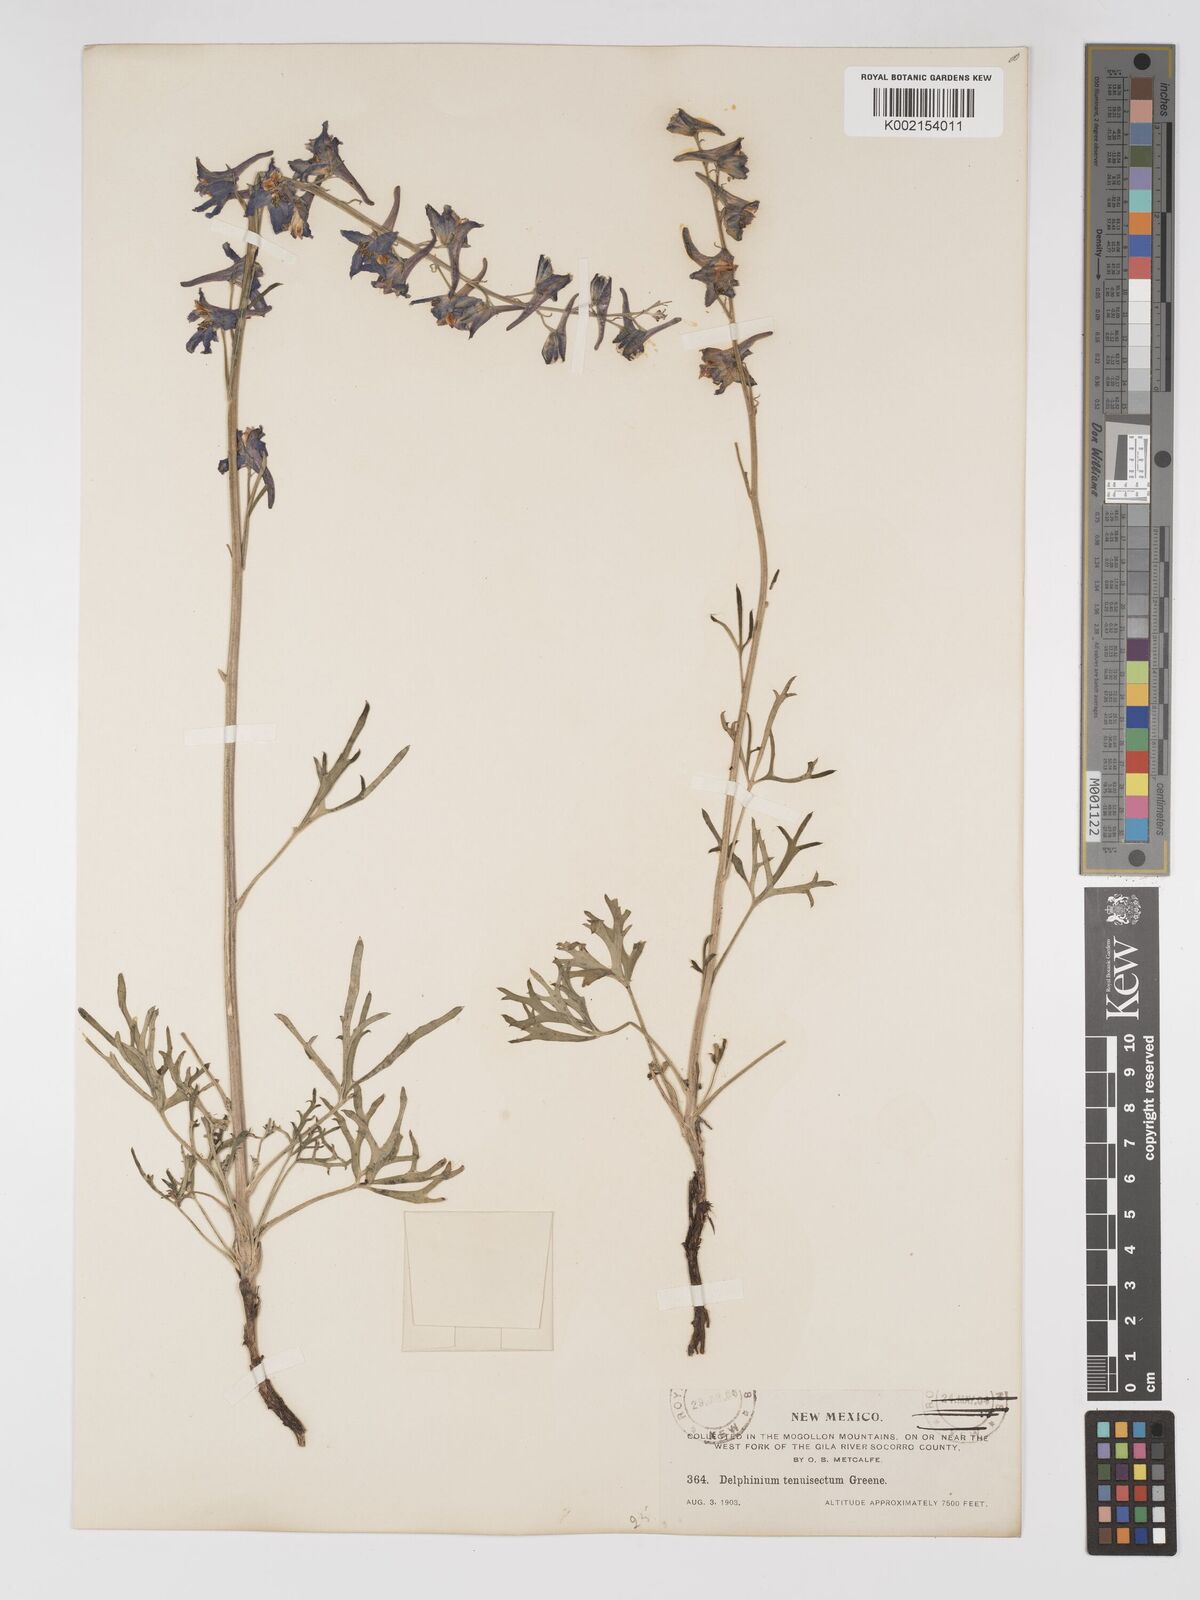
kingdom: Plantae
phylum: Tracheophyta
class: Magnoliopsida
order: Ranunculales
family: Ranunculaceae
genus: Delphinium
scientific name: Delphinium tenuisectum
